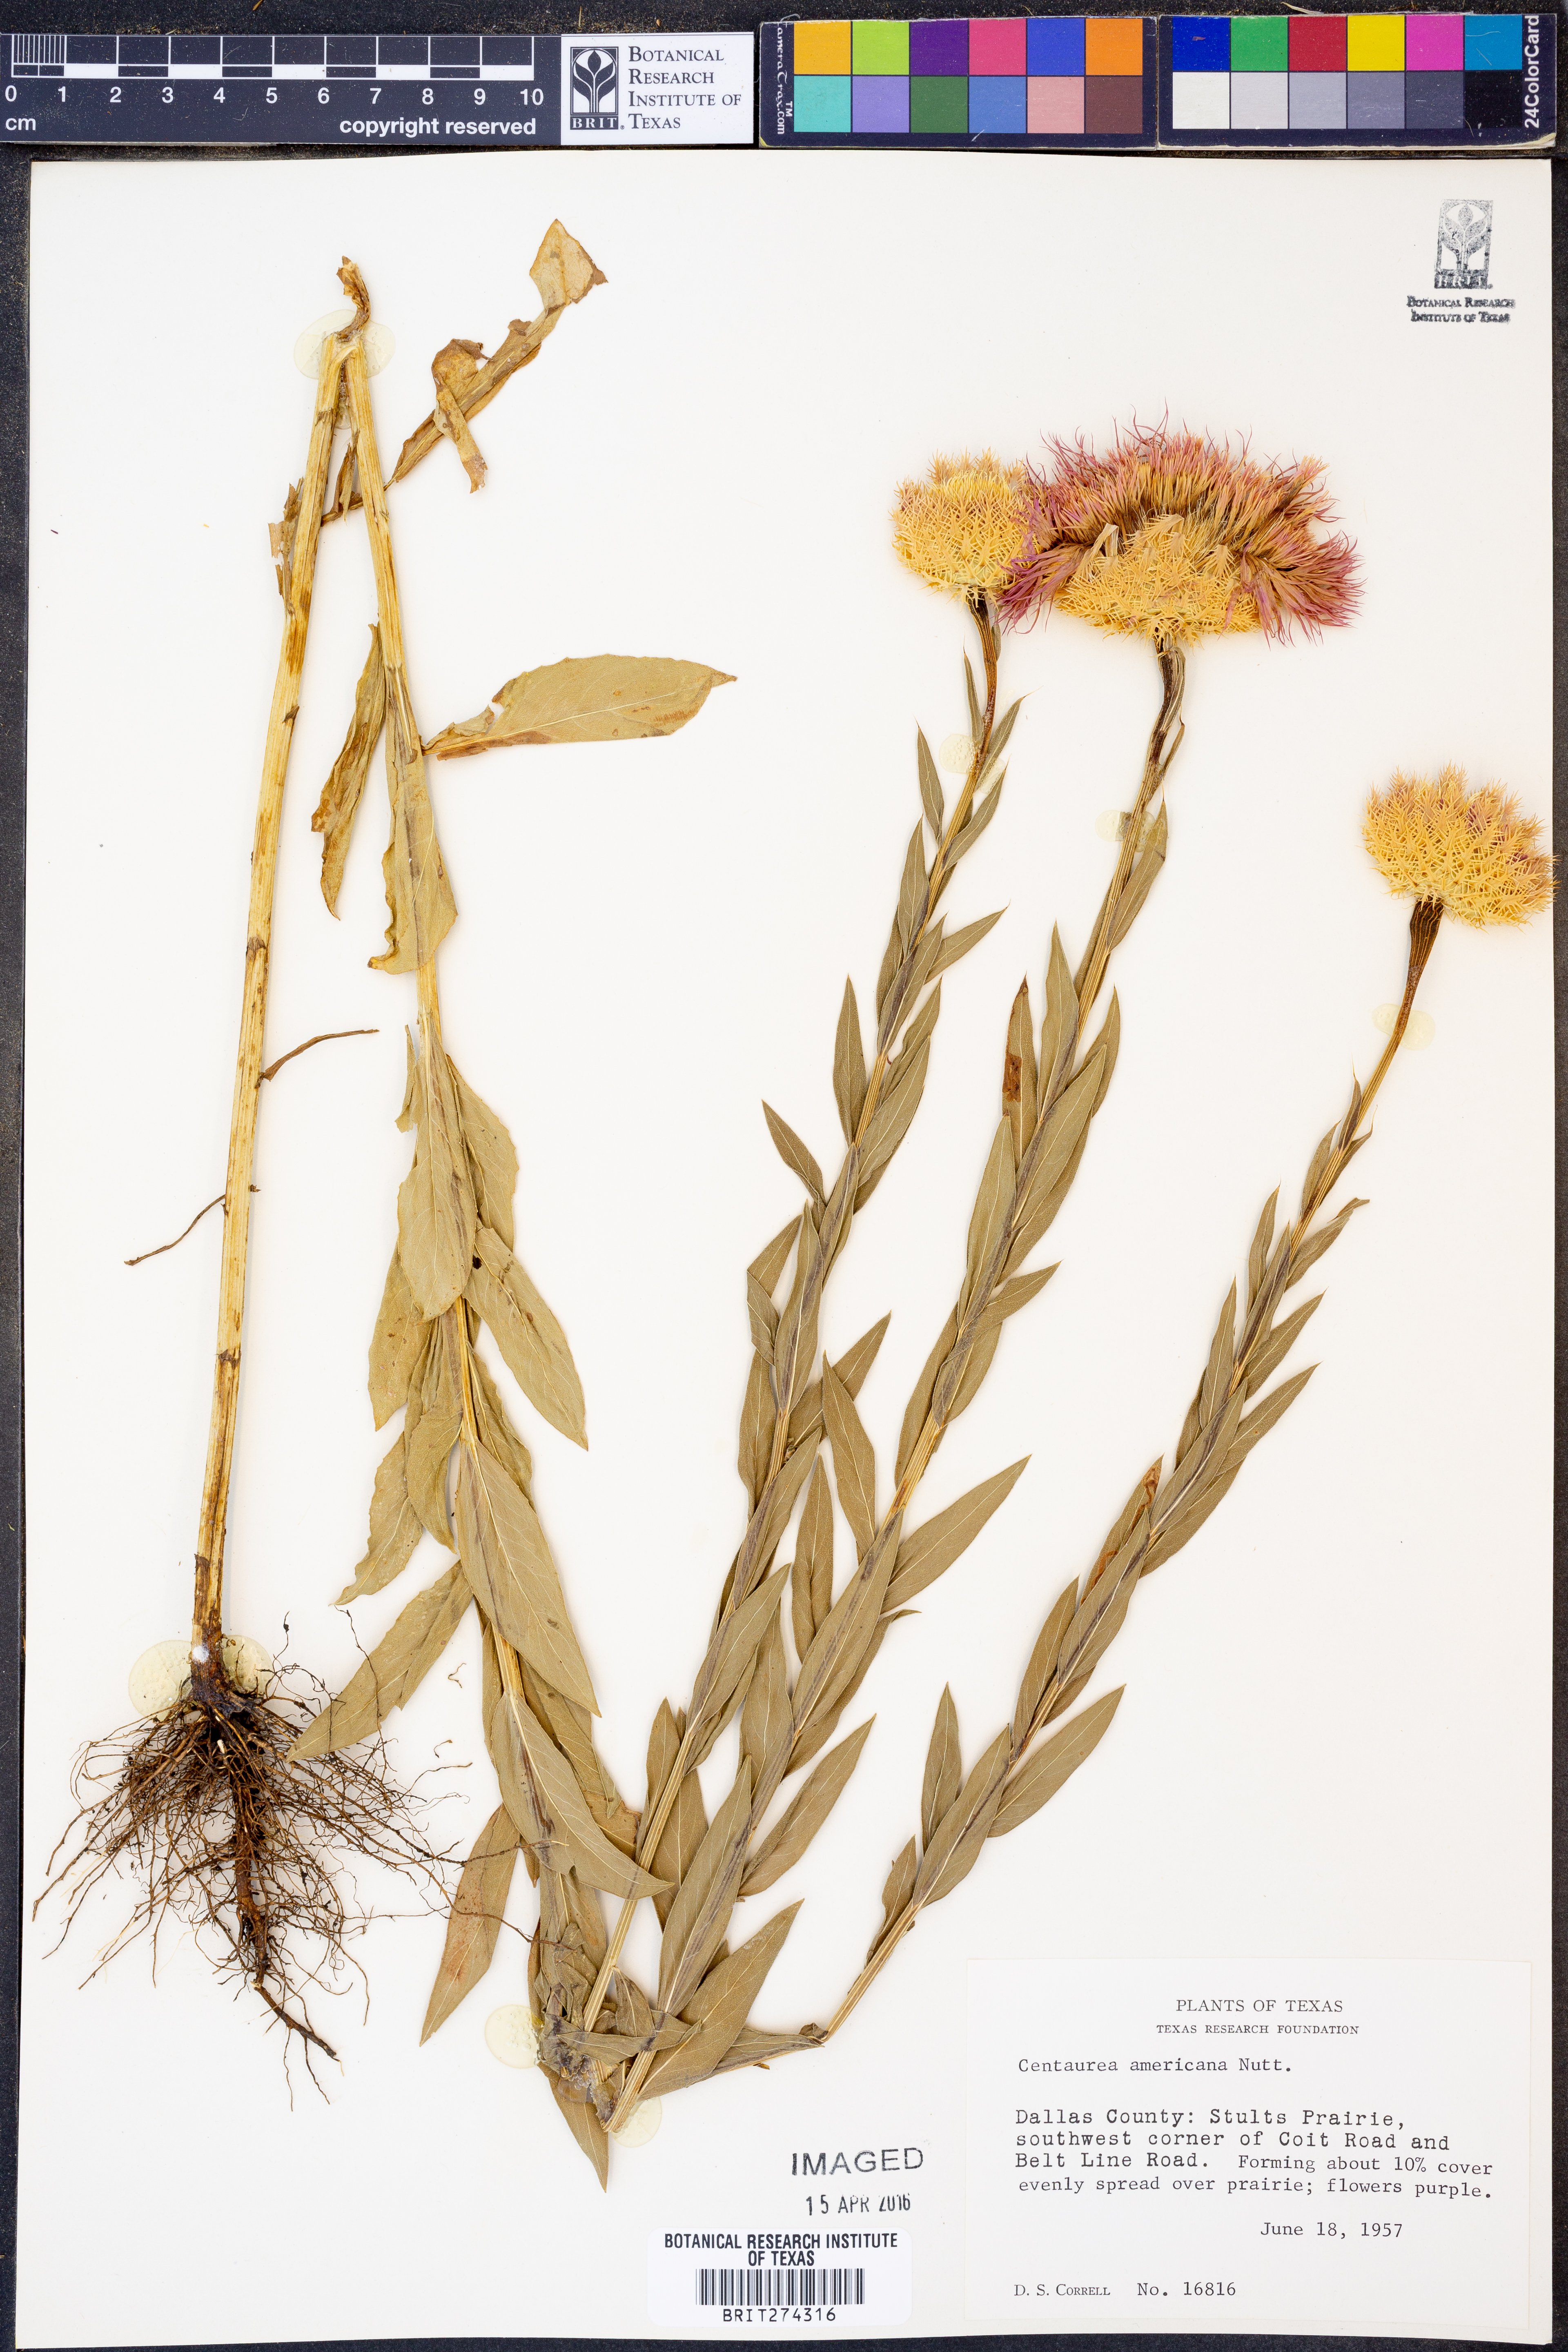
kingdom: Plantae
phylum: Tracheophyta
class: Magnoliopsida
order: Asterales
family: Asteraceae
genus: Plectocephalus
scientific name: Plectocephalus americanus
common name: American basket-flower
